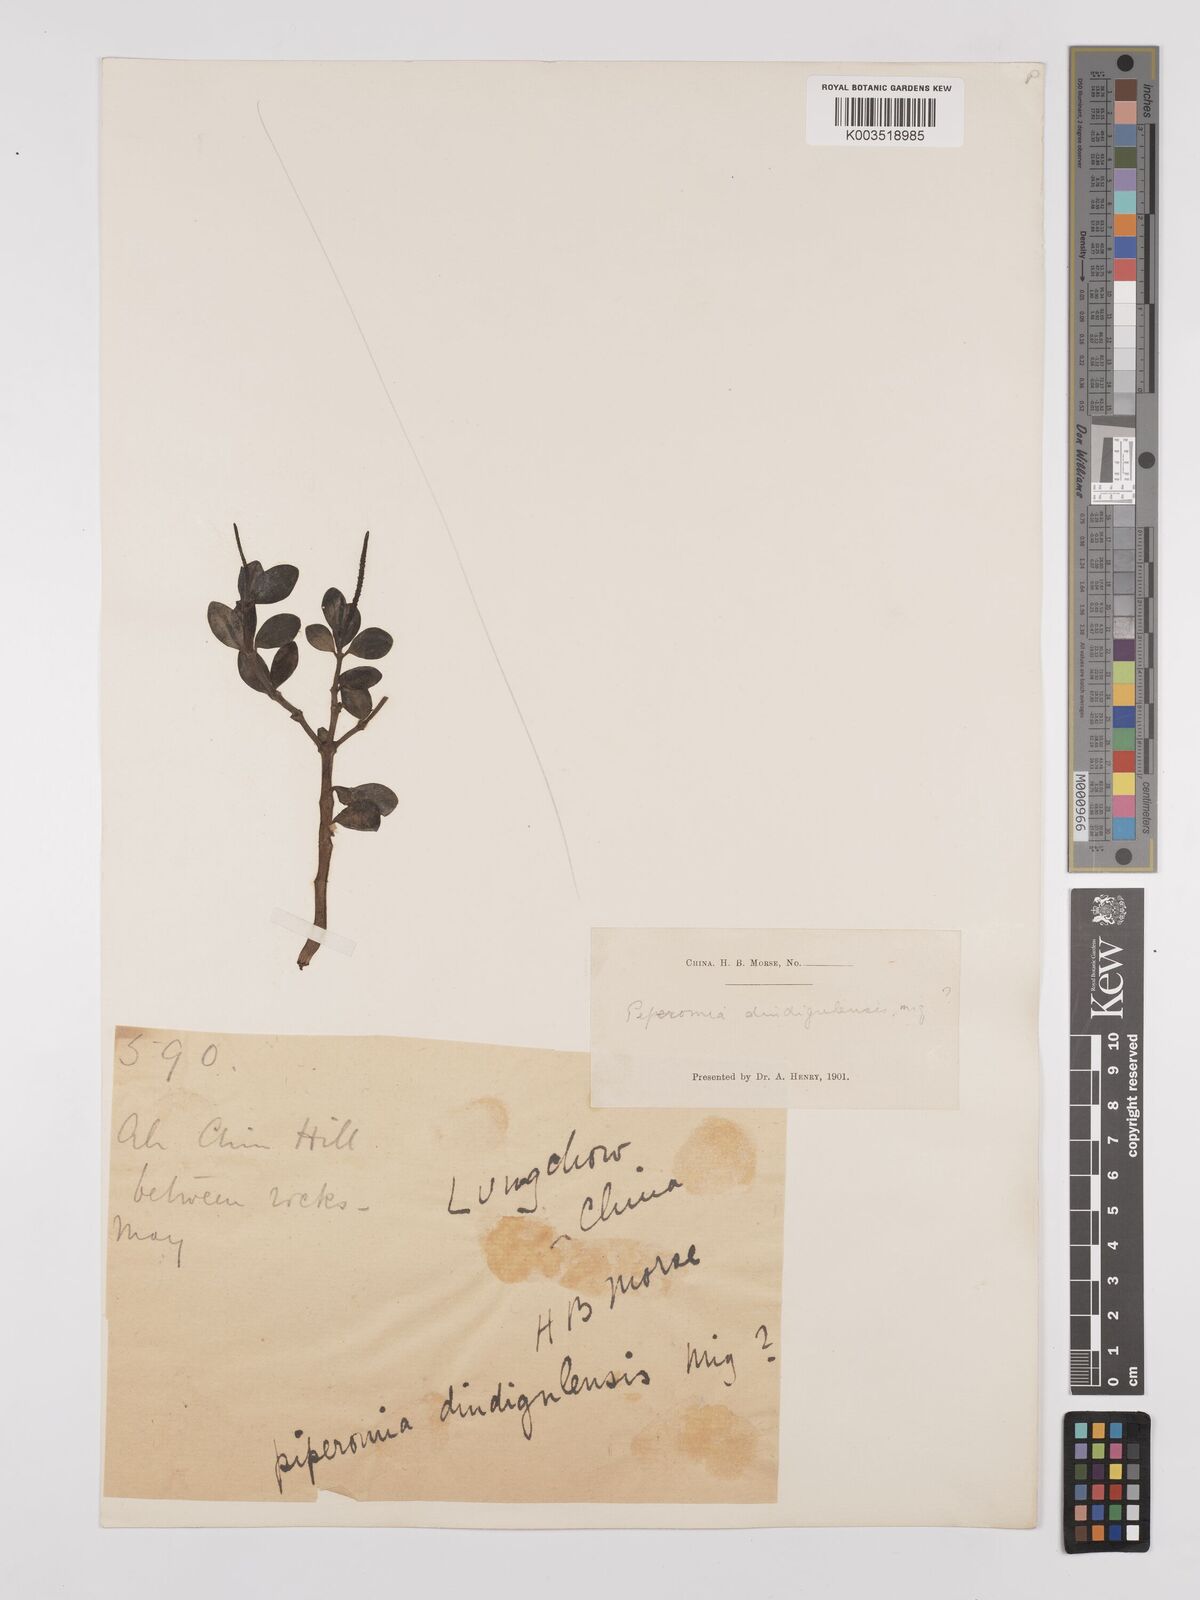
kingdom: Plantae
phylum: Tracheophyta
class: Magnoliopsida
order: Piperales
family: Piperaceae
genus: Peperomia
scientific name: Peperomia leptostachya
